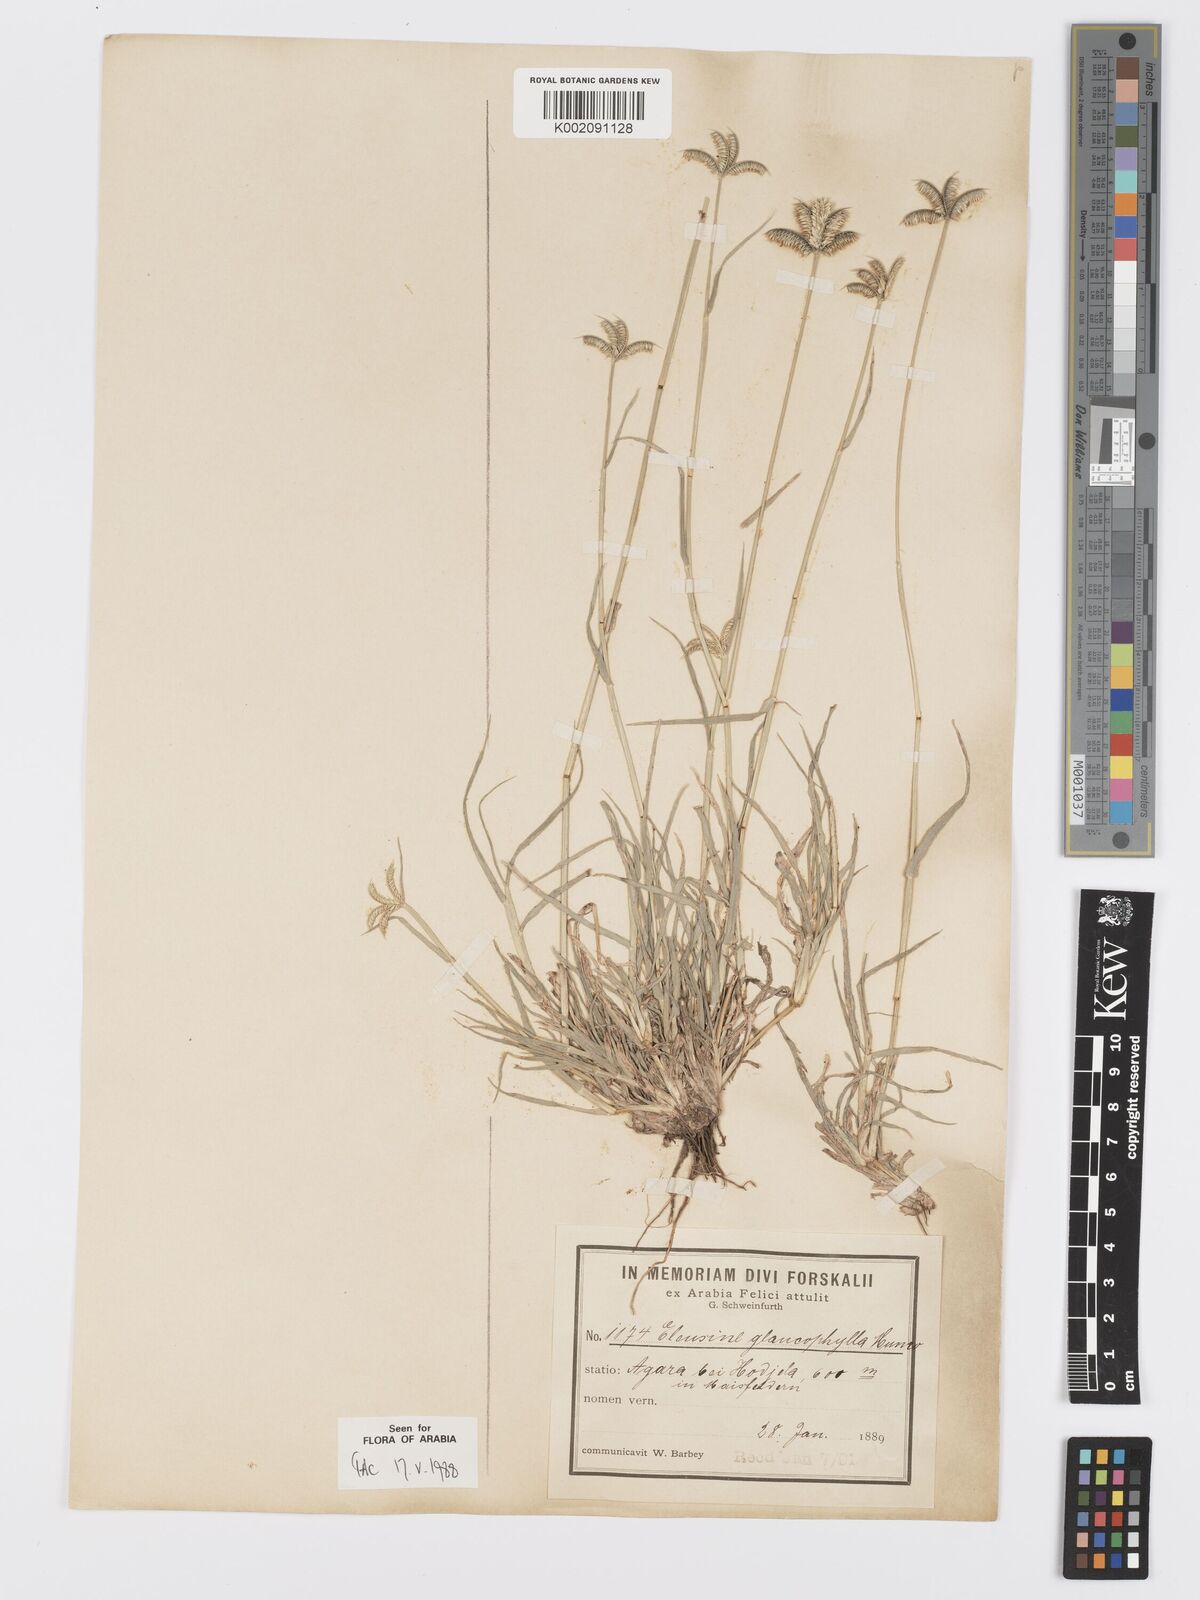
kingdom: Plantae
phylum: Tracheophyta
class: Liliopsida
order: Poales
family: Poaceae
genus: Dactyloctenium
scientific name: Dactyloctenium scindicum
